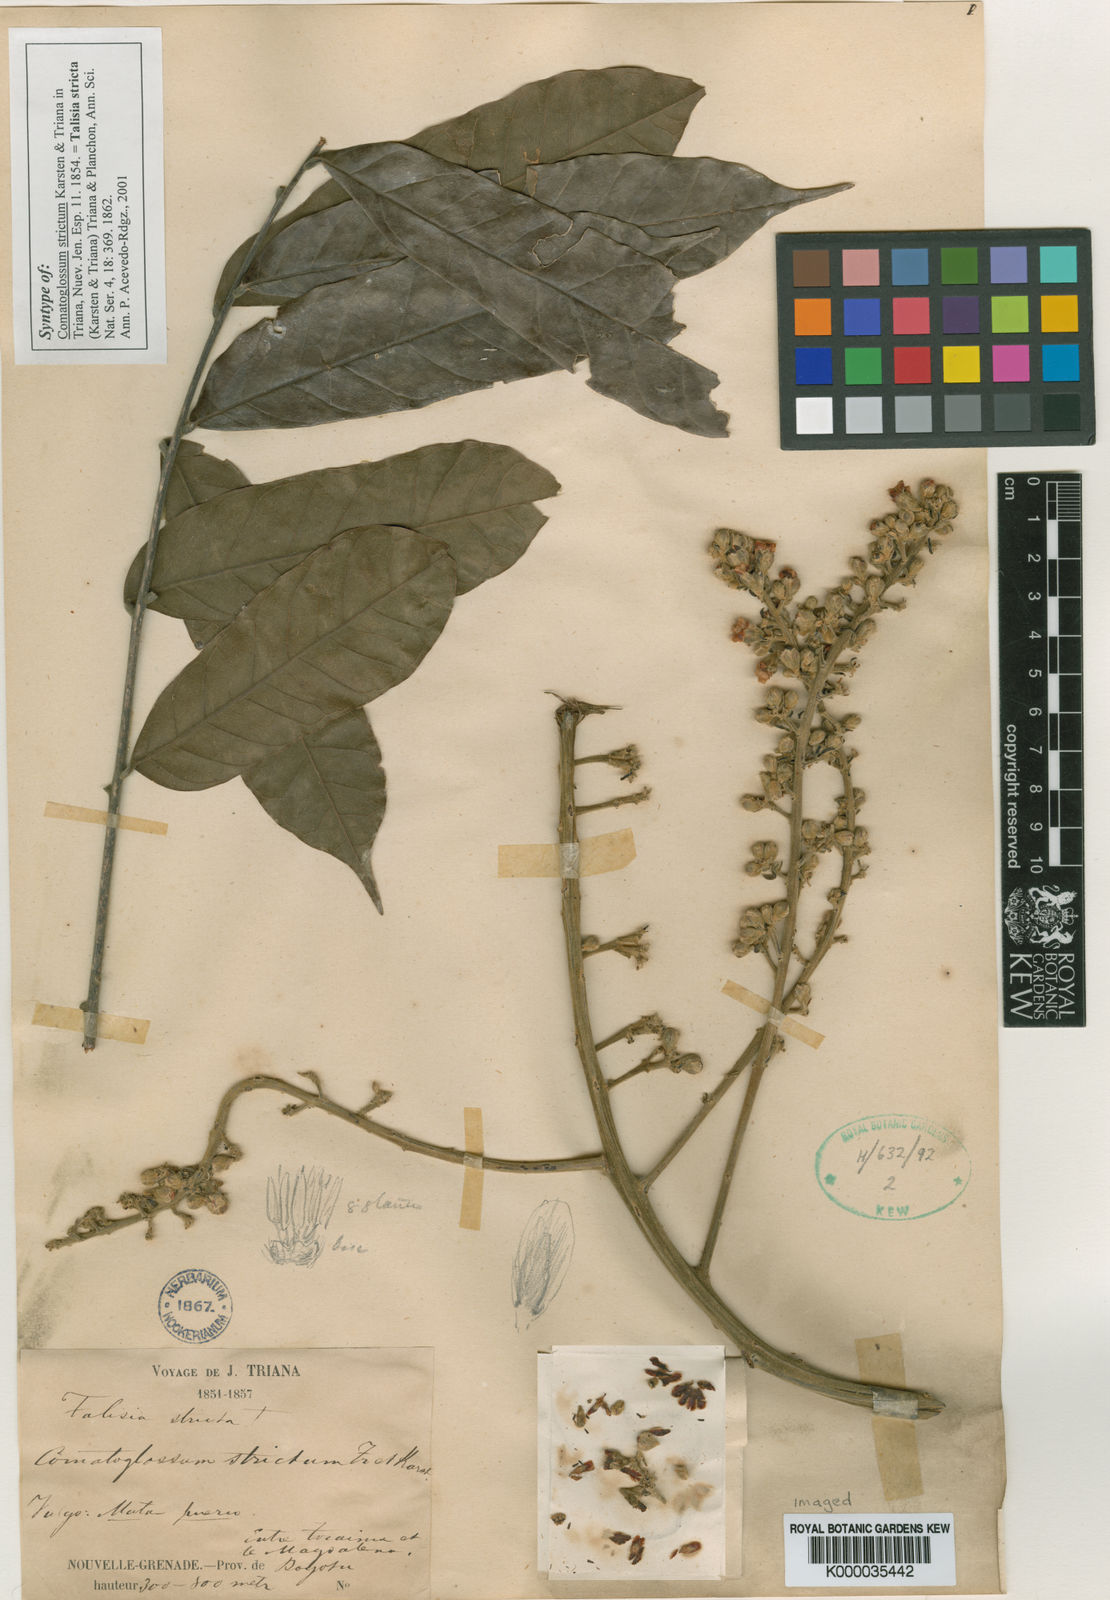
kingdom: Plantae
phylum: Tracheophyta
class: Magnoliopsida
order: Sapindales
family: Sapindaceae
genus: Talisia
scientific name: Talisia
